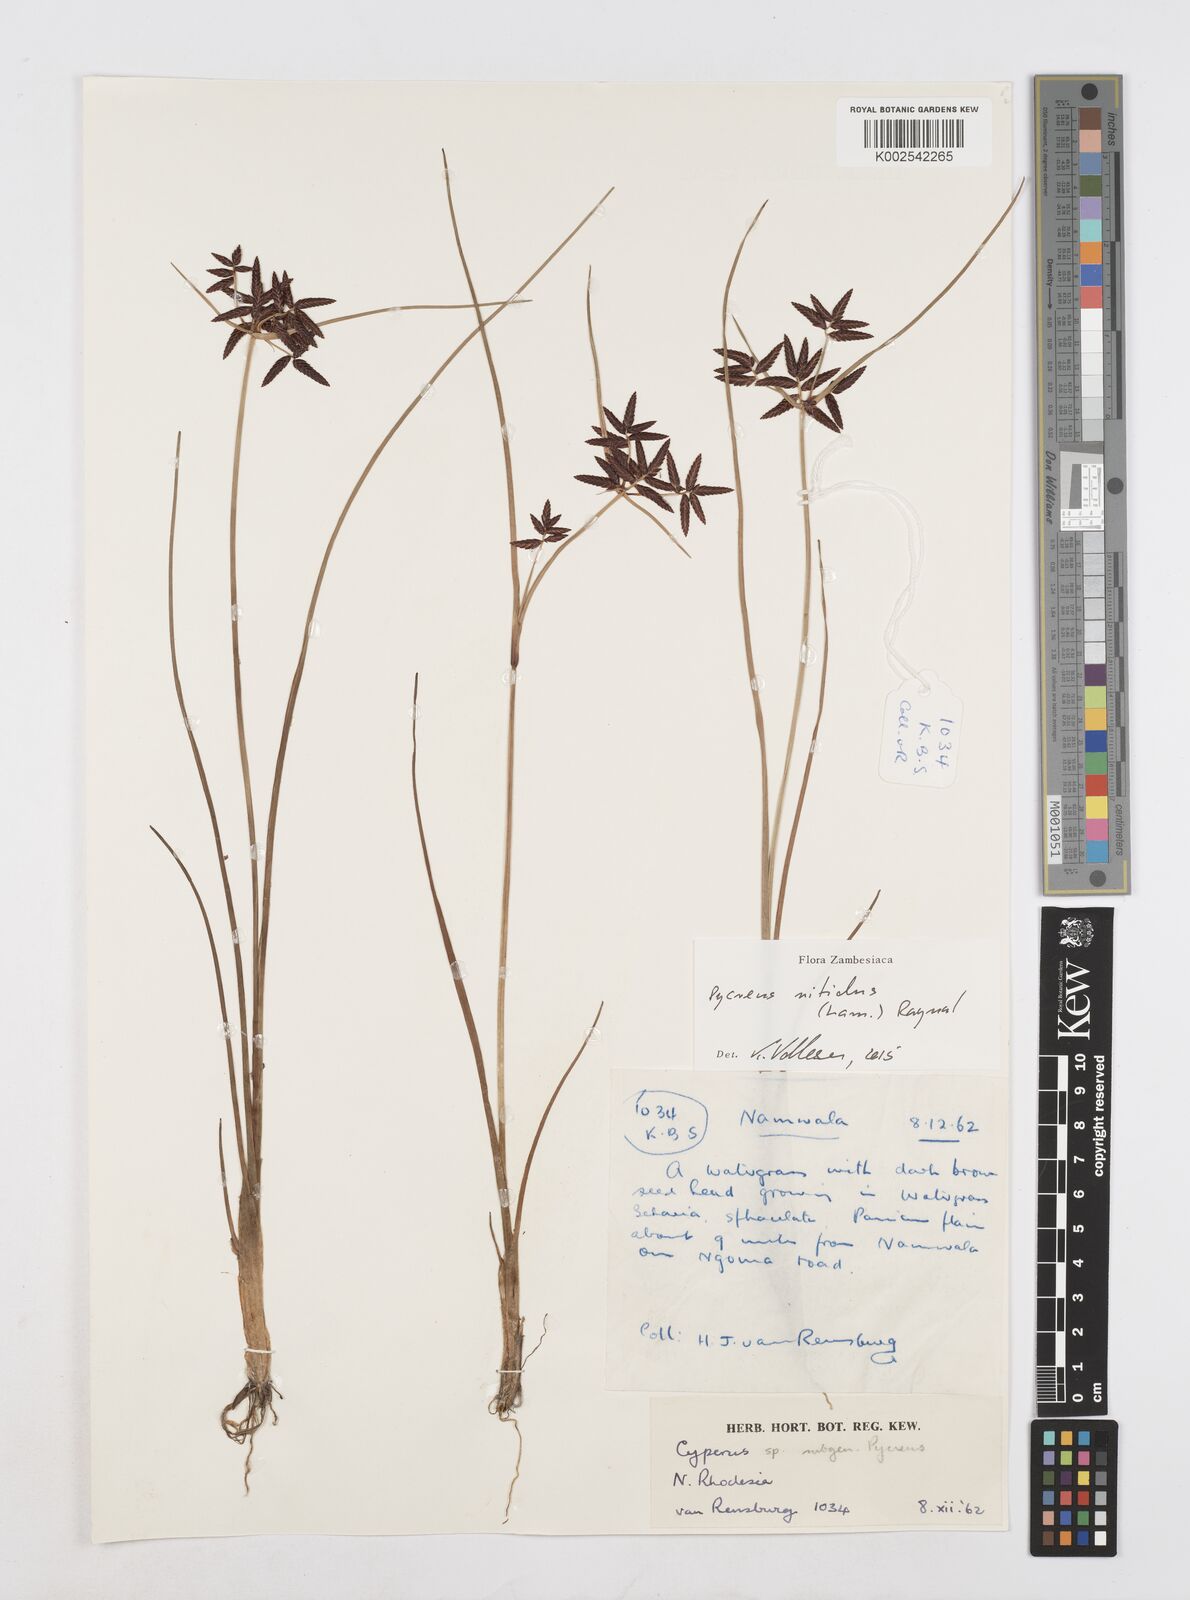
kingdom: Plantae
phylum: Tracheophyta
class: Liliopsida
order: Poales
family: Cyperaceae
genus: Cyperus
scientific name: Cyperus nitidus
